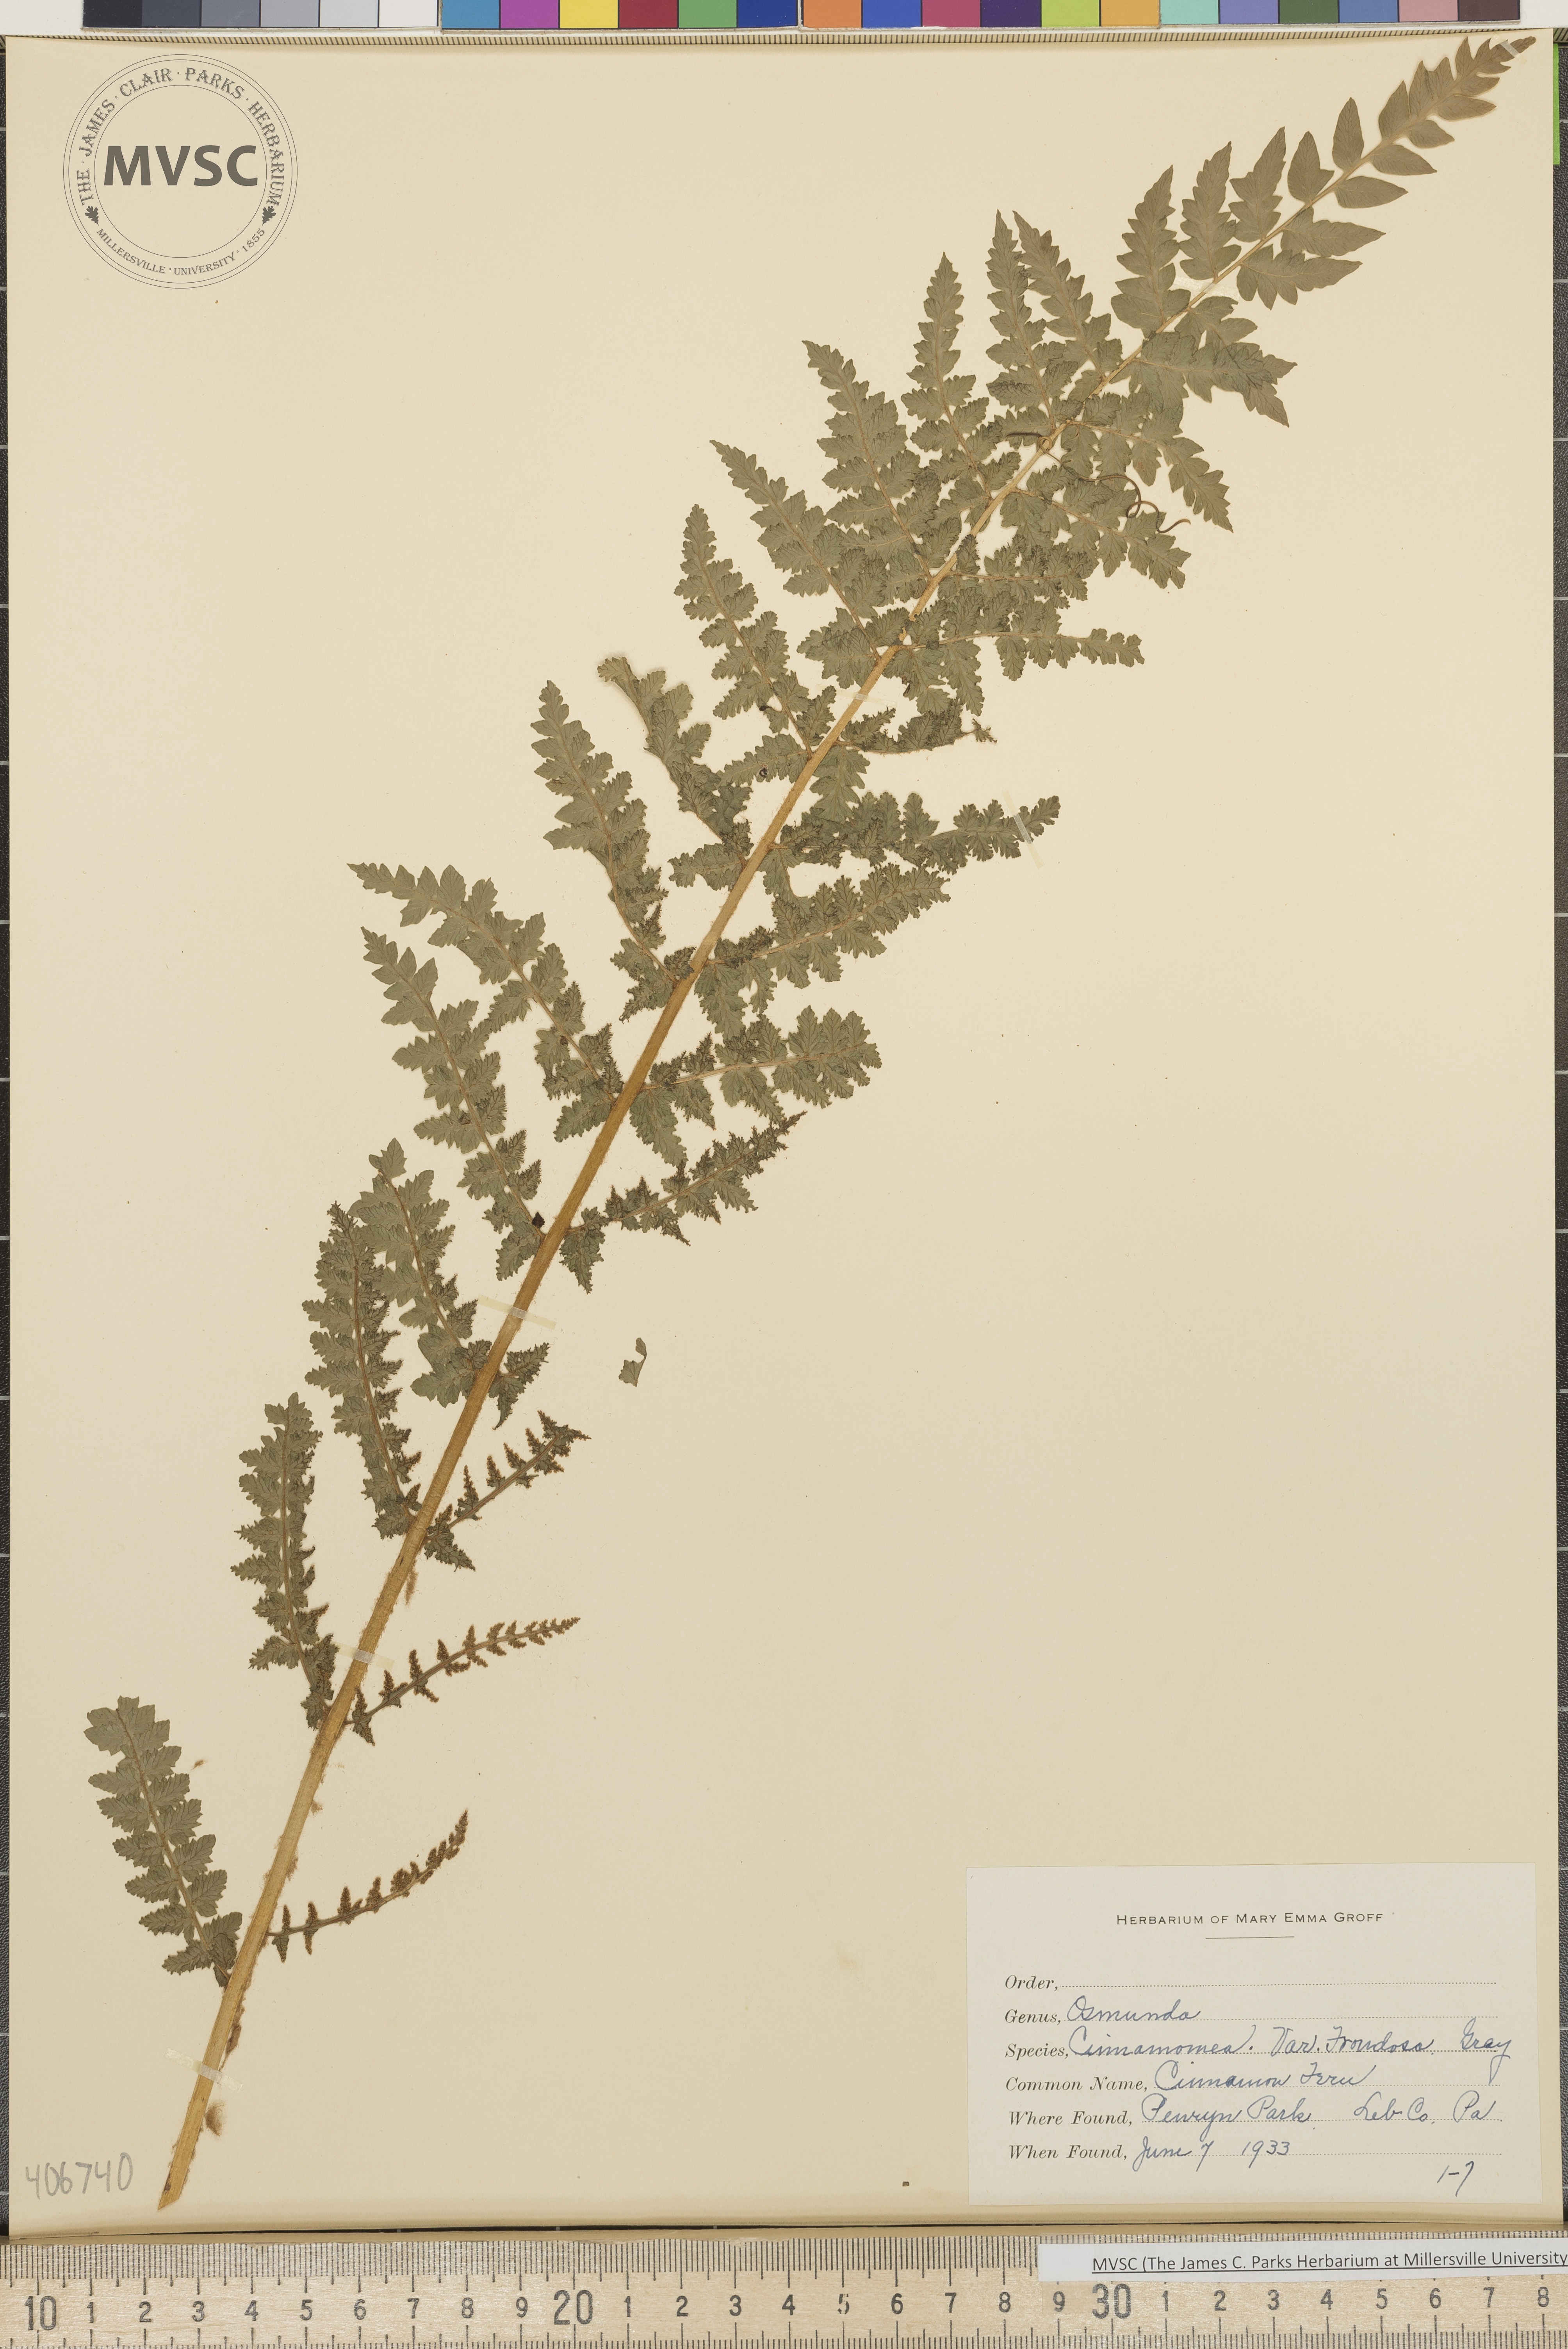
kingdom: Plantae
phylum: Tracheophyta
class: Polypodiopsida
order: Osmundales
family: Osmundaceae
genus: Osmundastrum
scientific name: Osmundastrum cinnamomeum
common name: Cinnamon fern
